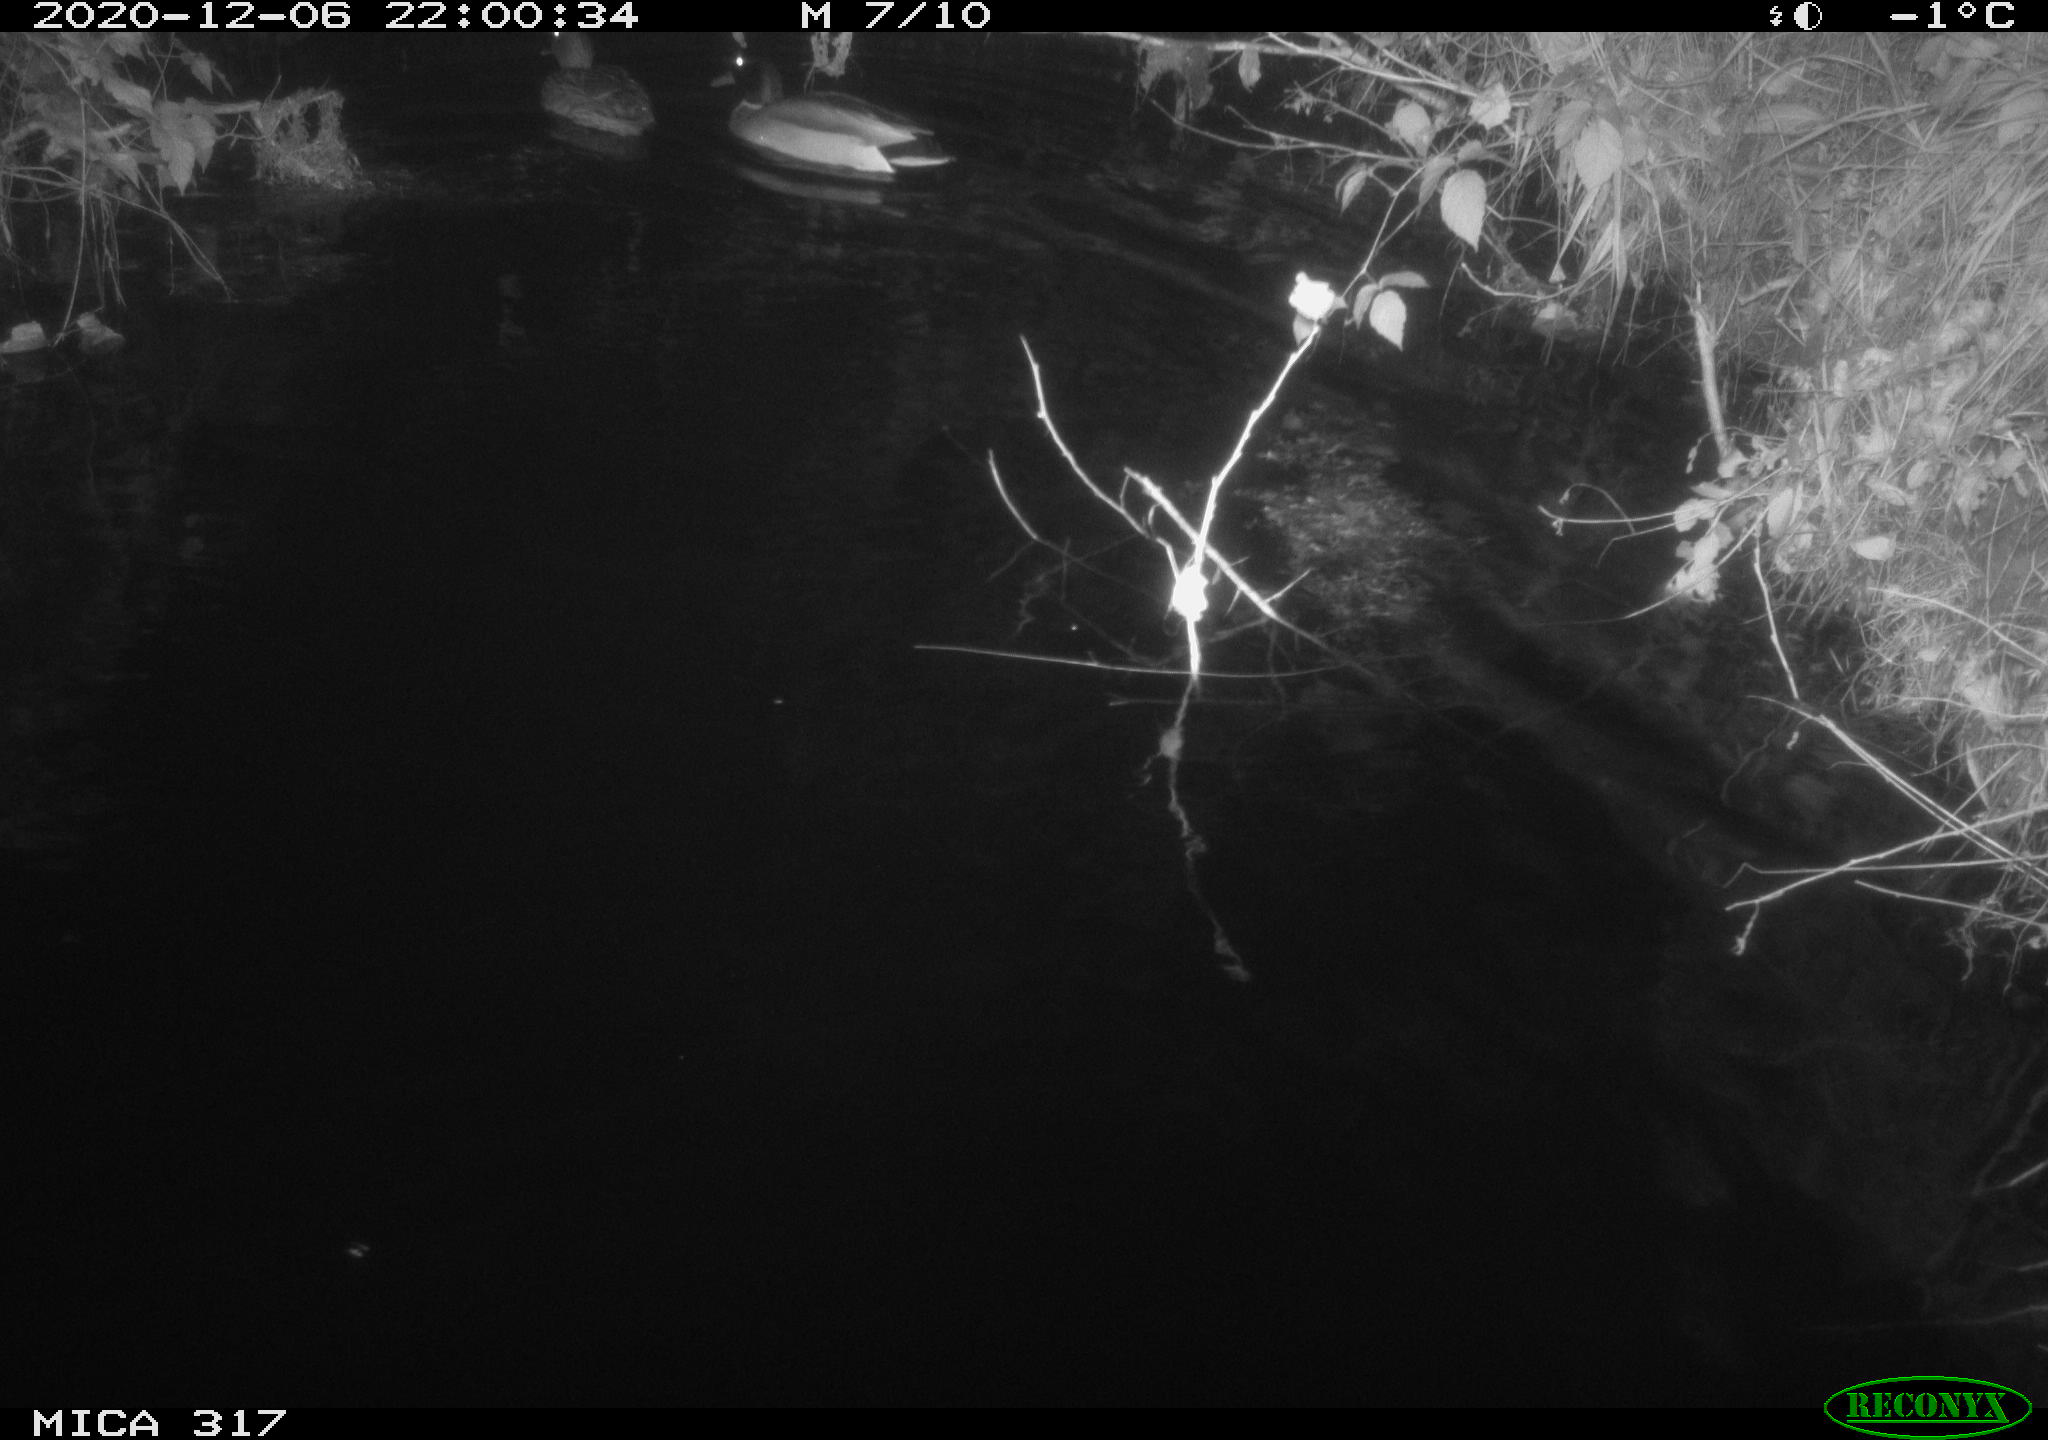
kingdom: Animalia
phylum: Chordata
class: Aves
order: Anseriformes
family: Anatidae
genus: Anas
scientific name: Anas platyrhynchos
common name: Mallard
